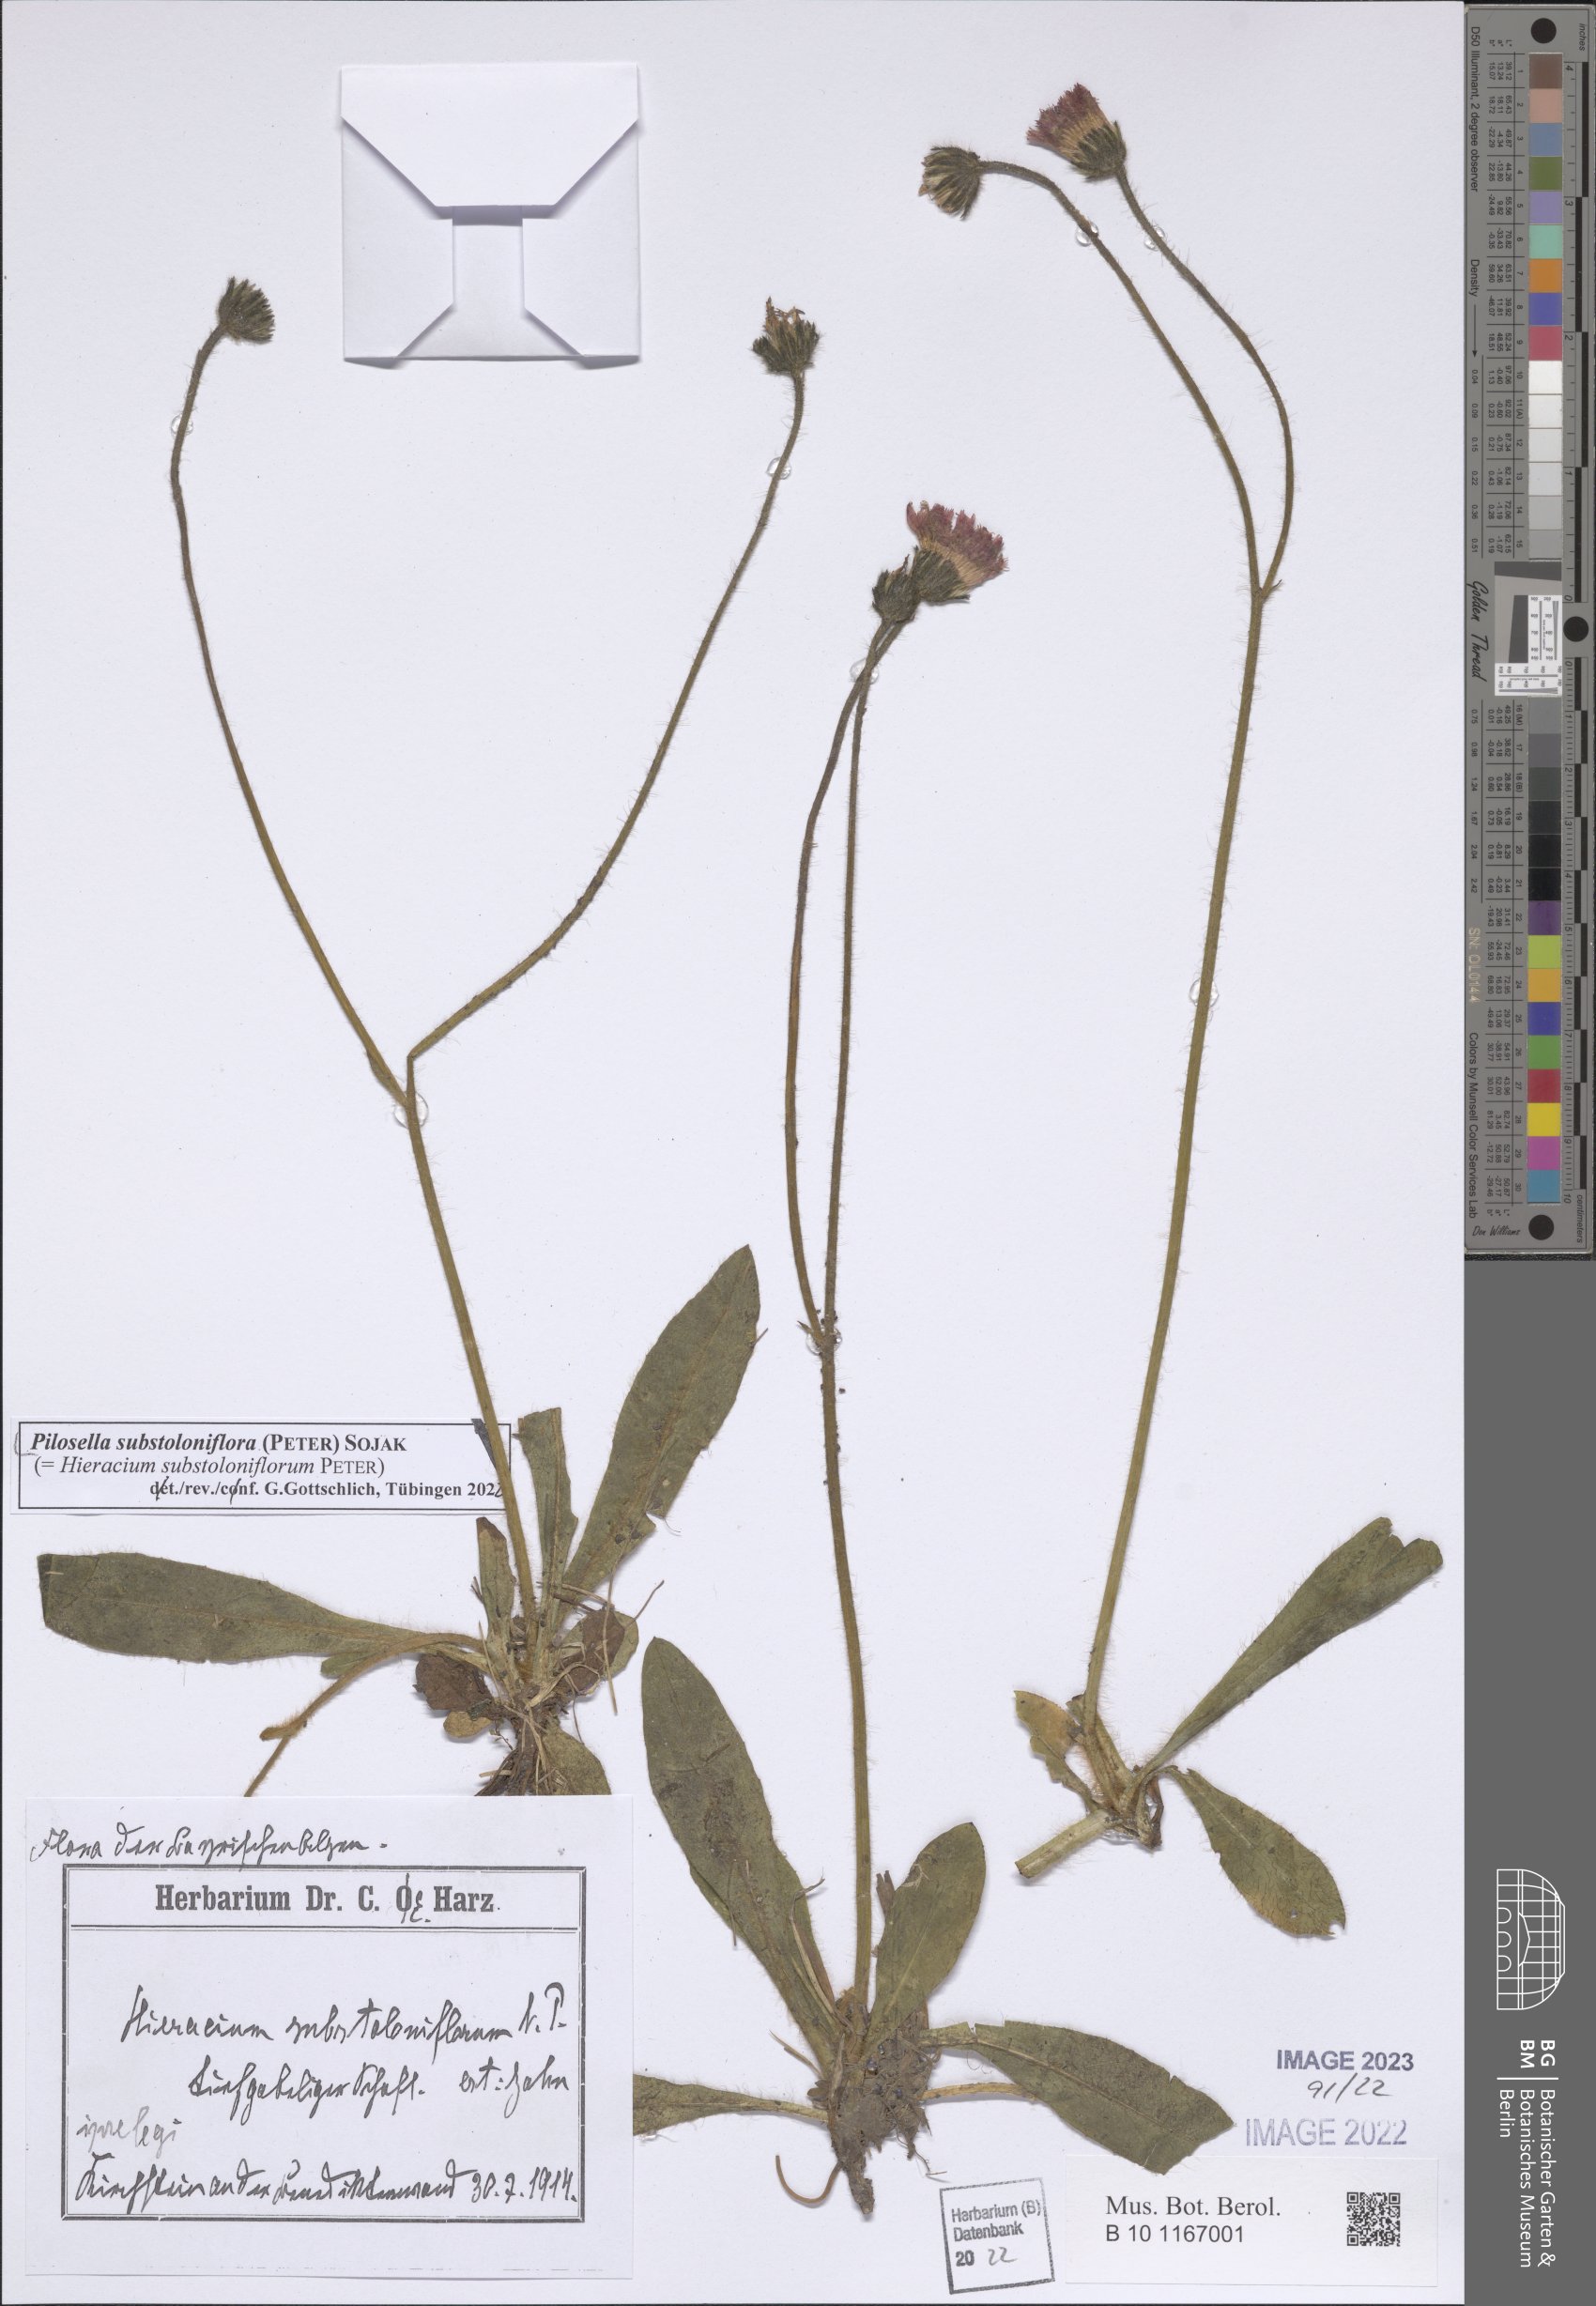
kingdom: Plantae
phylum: Tracheophyta
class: Magnoliopsida
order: Asterales
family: Asteraceae
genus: Pilosella
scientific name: Pilosella substoloniflora
